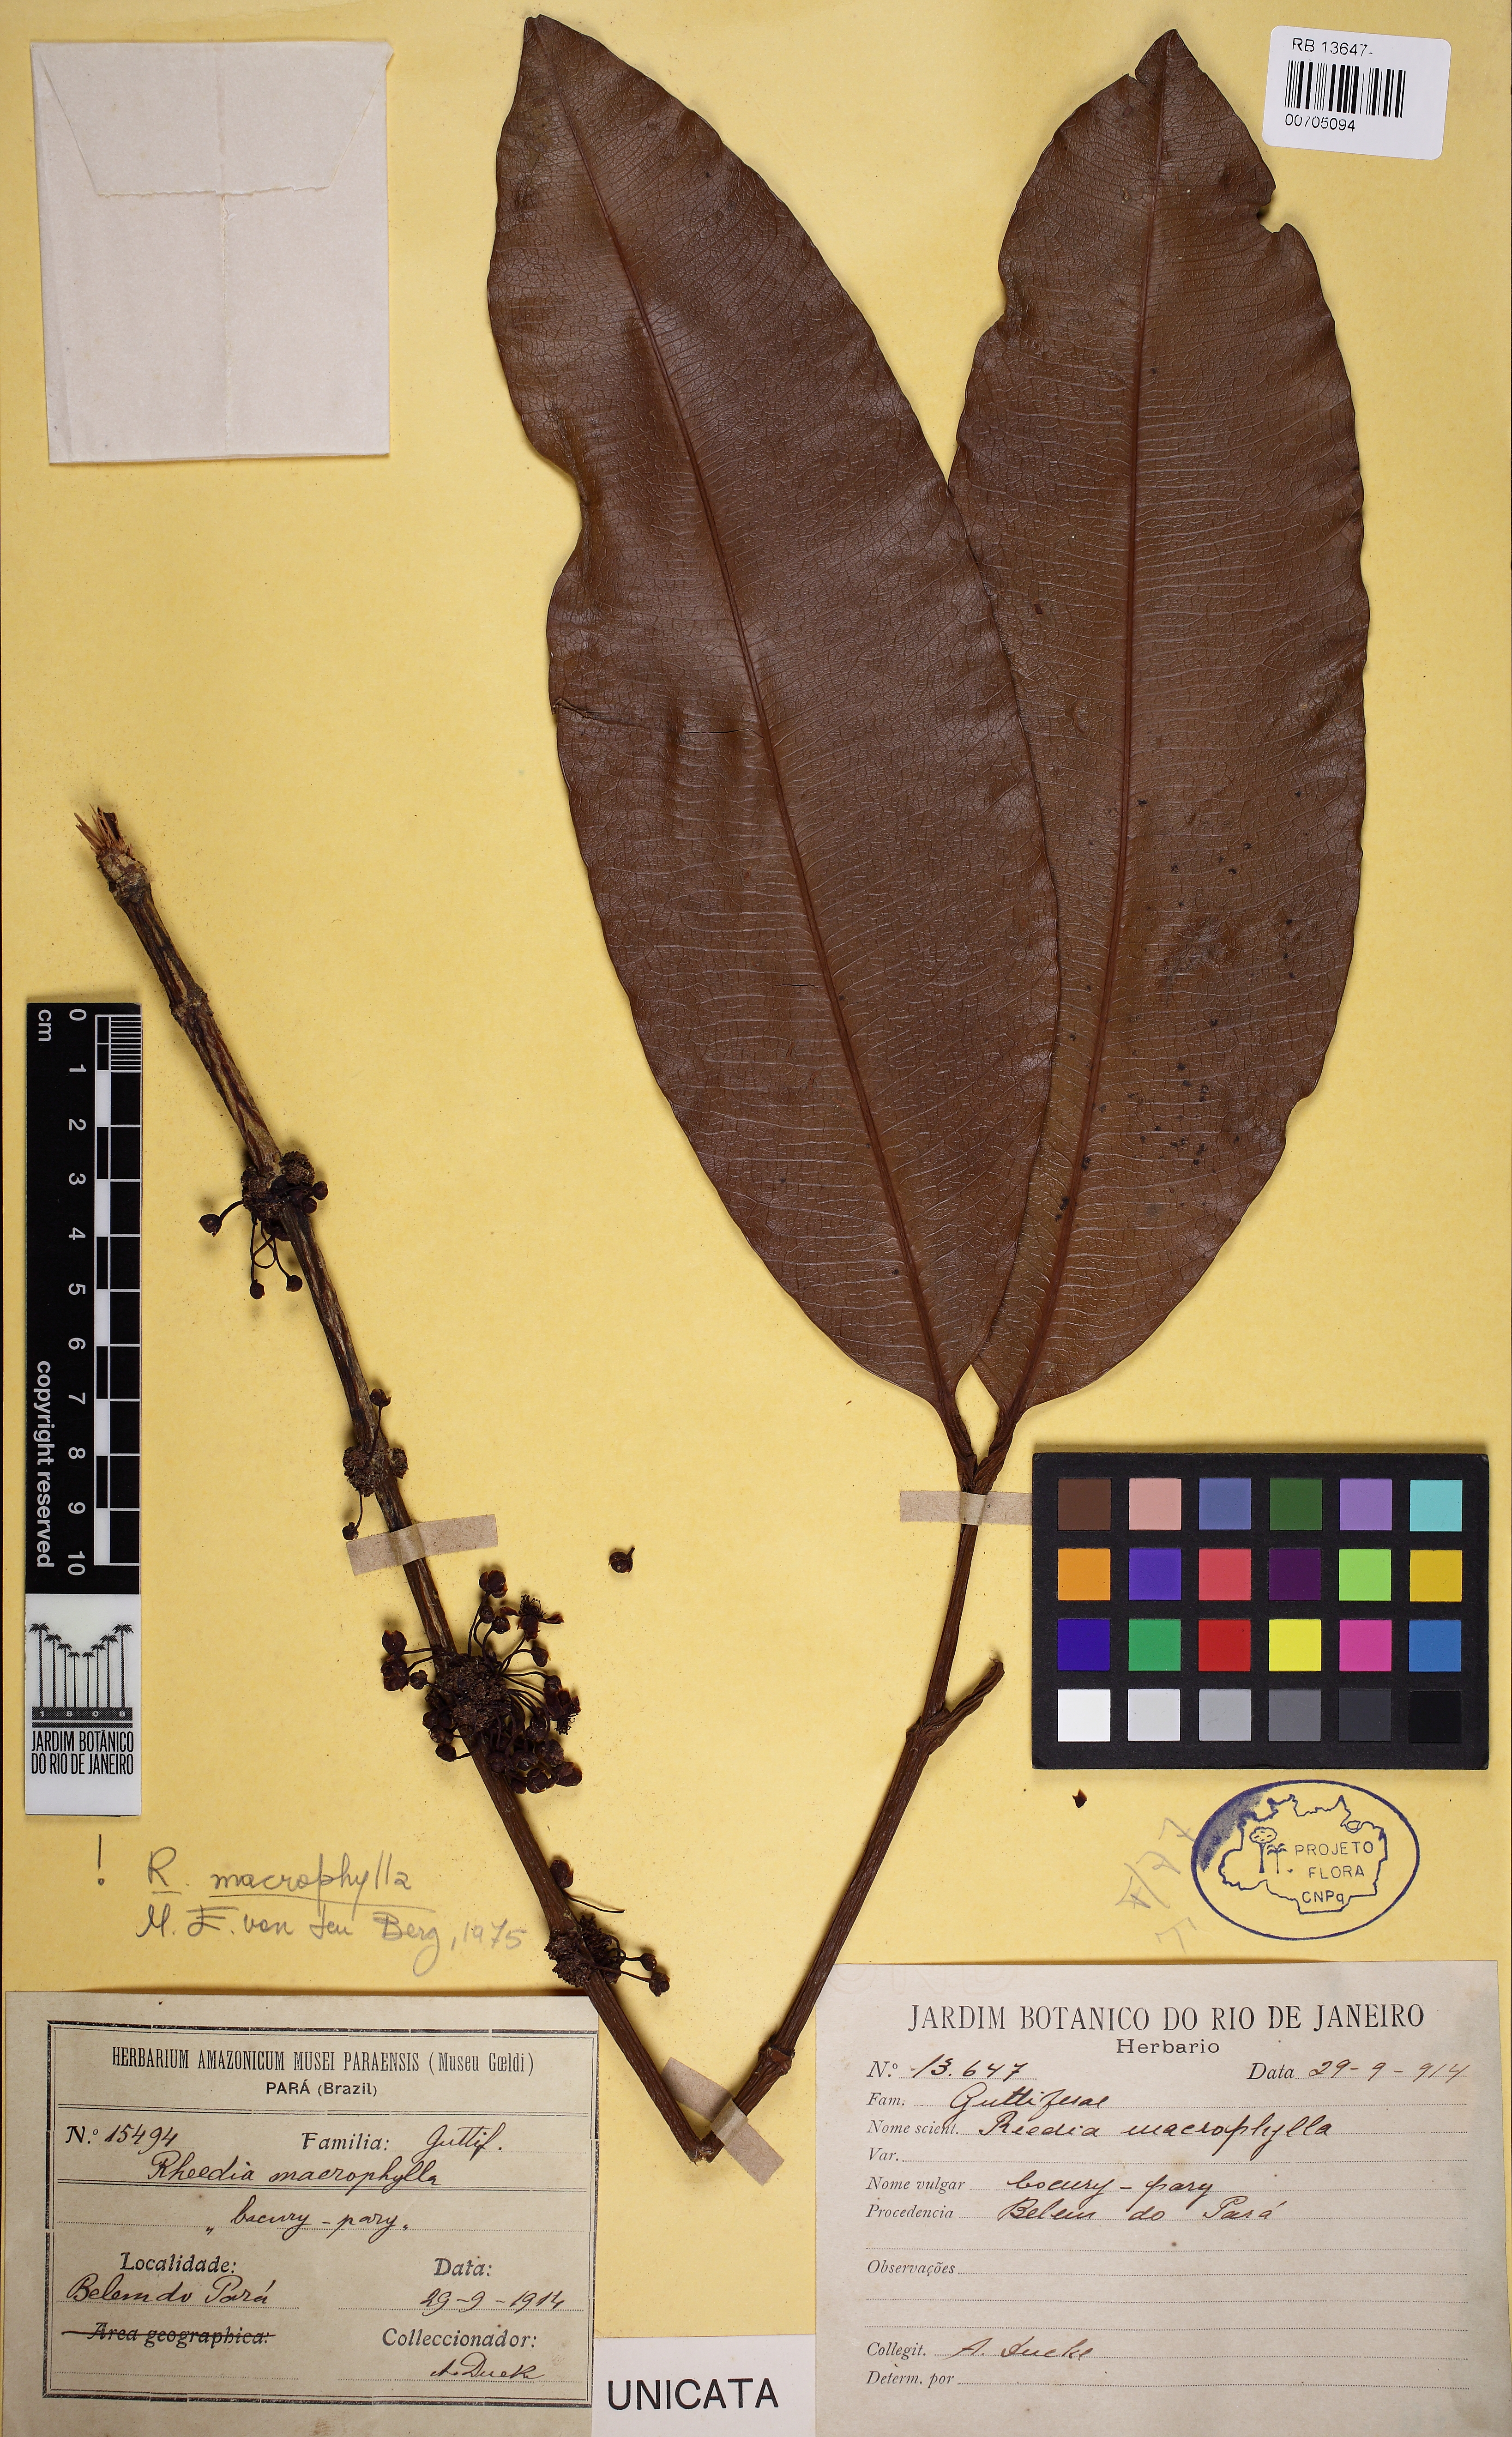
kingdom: Plantae
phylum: Tracheophyta
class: Magnoliopsida
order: Malpighiales
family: Clusiaceae
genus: Garcinia
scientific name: Garcinia macrophylla
